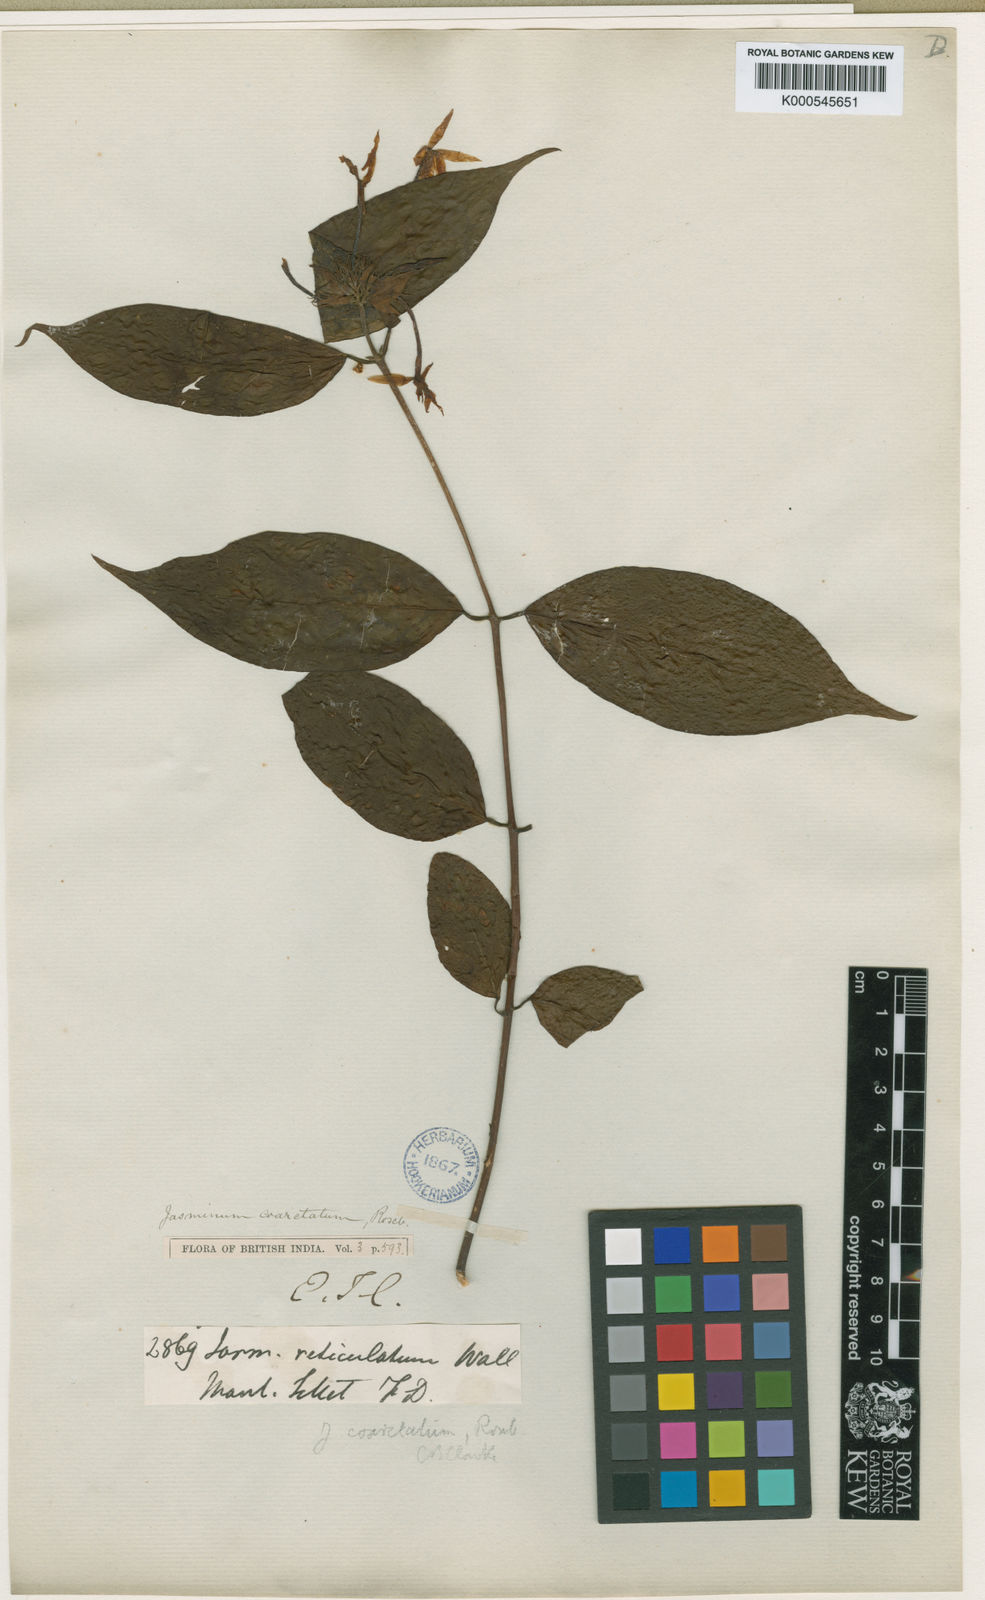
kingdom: Plantae
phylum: Tracheophyta
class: Magnoliopsida
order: Lamiales
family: Oleaceae
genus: Jasminum
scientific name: Jasminum coarctatum
